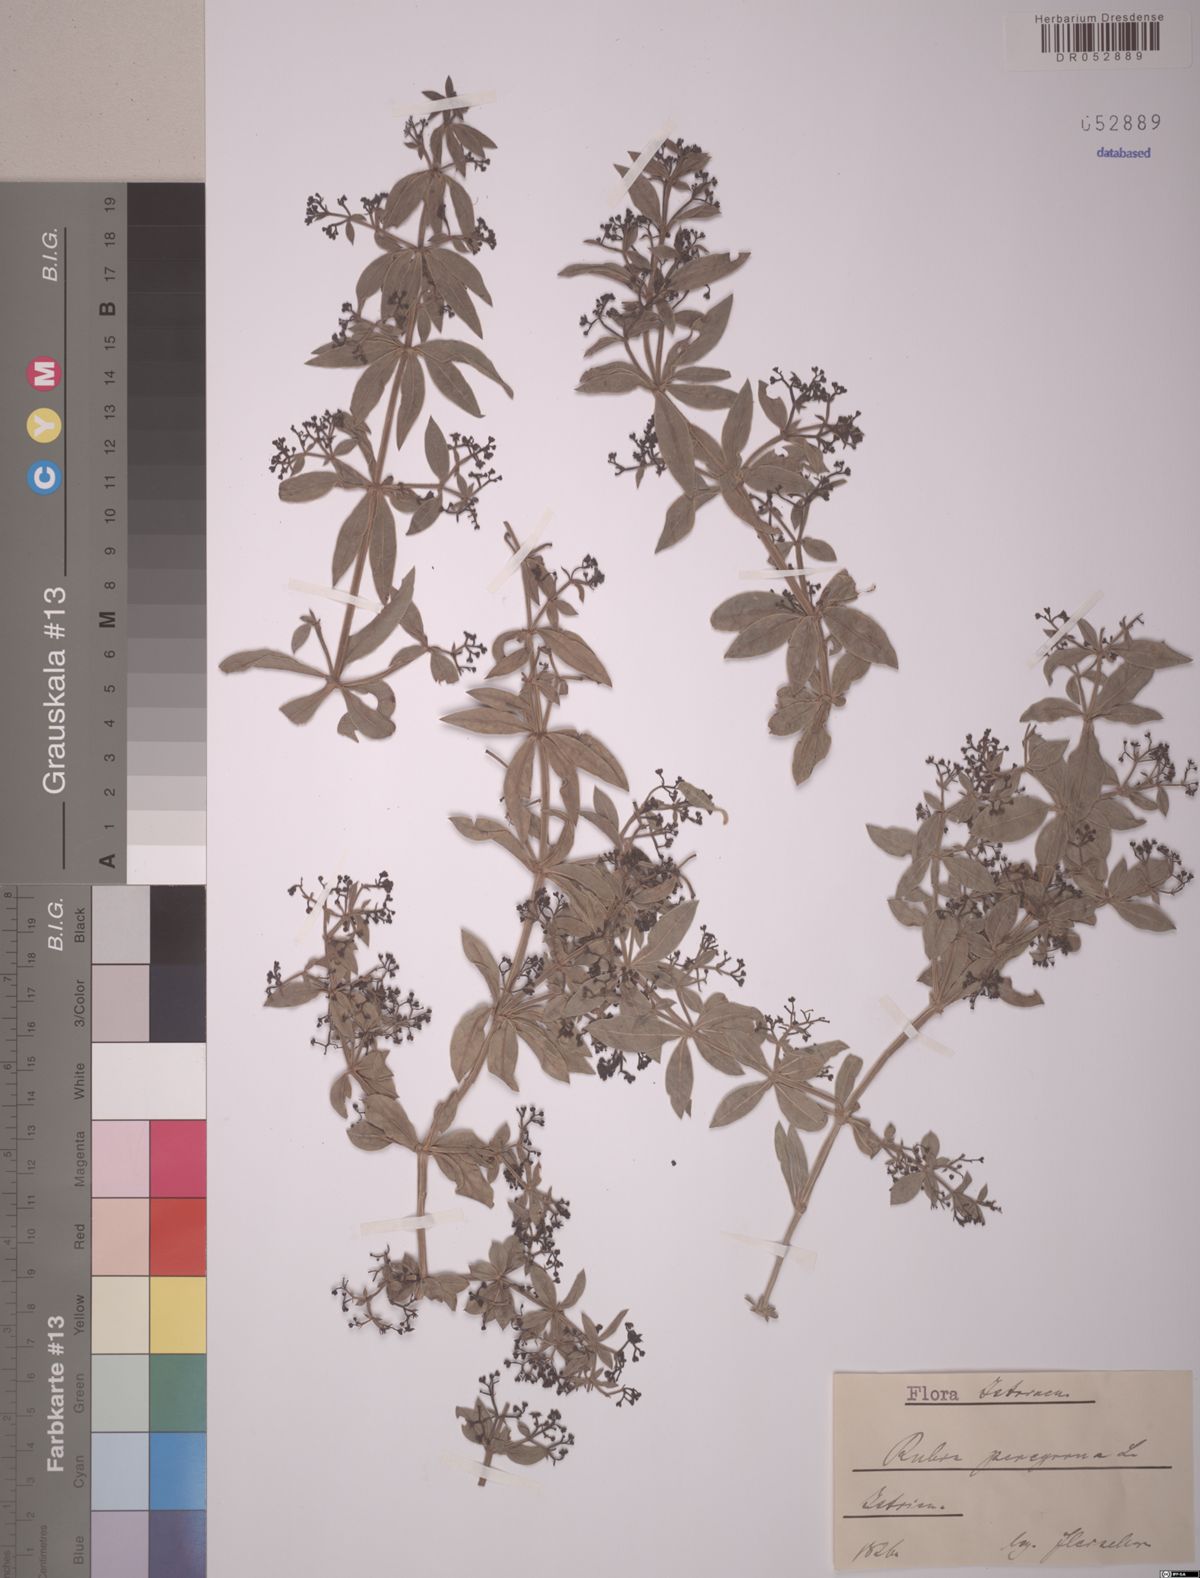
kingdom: Plantae
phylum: Tracheophyta
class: Magnoliopsida
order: Gentianales
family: Rubiaceae
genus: Rubia
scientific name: Rubia peregrina
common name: Wild madder
